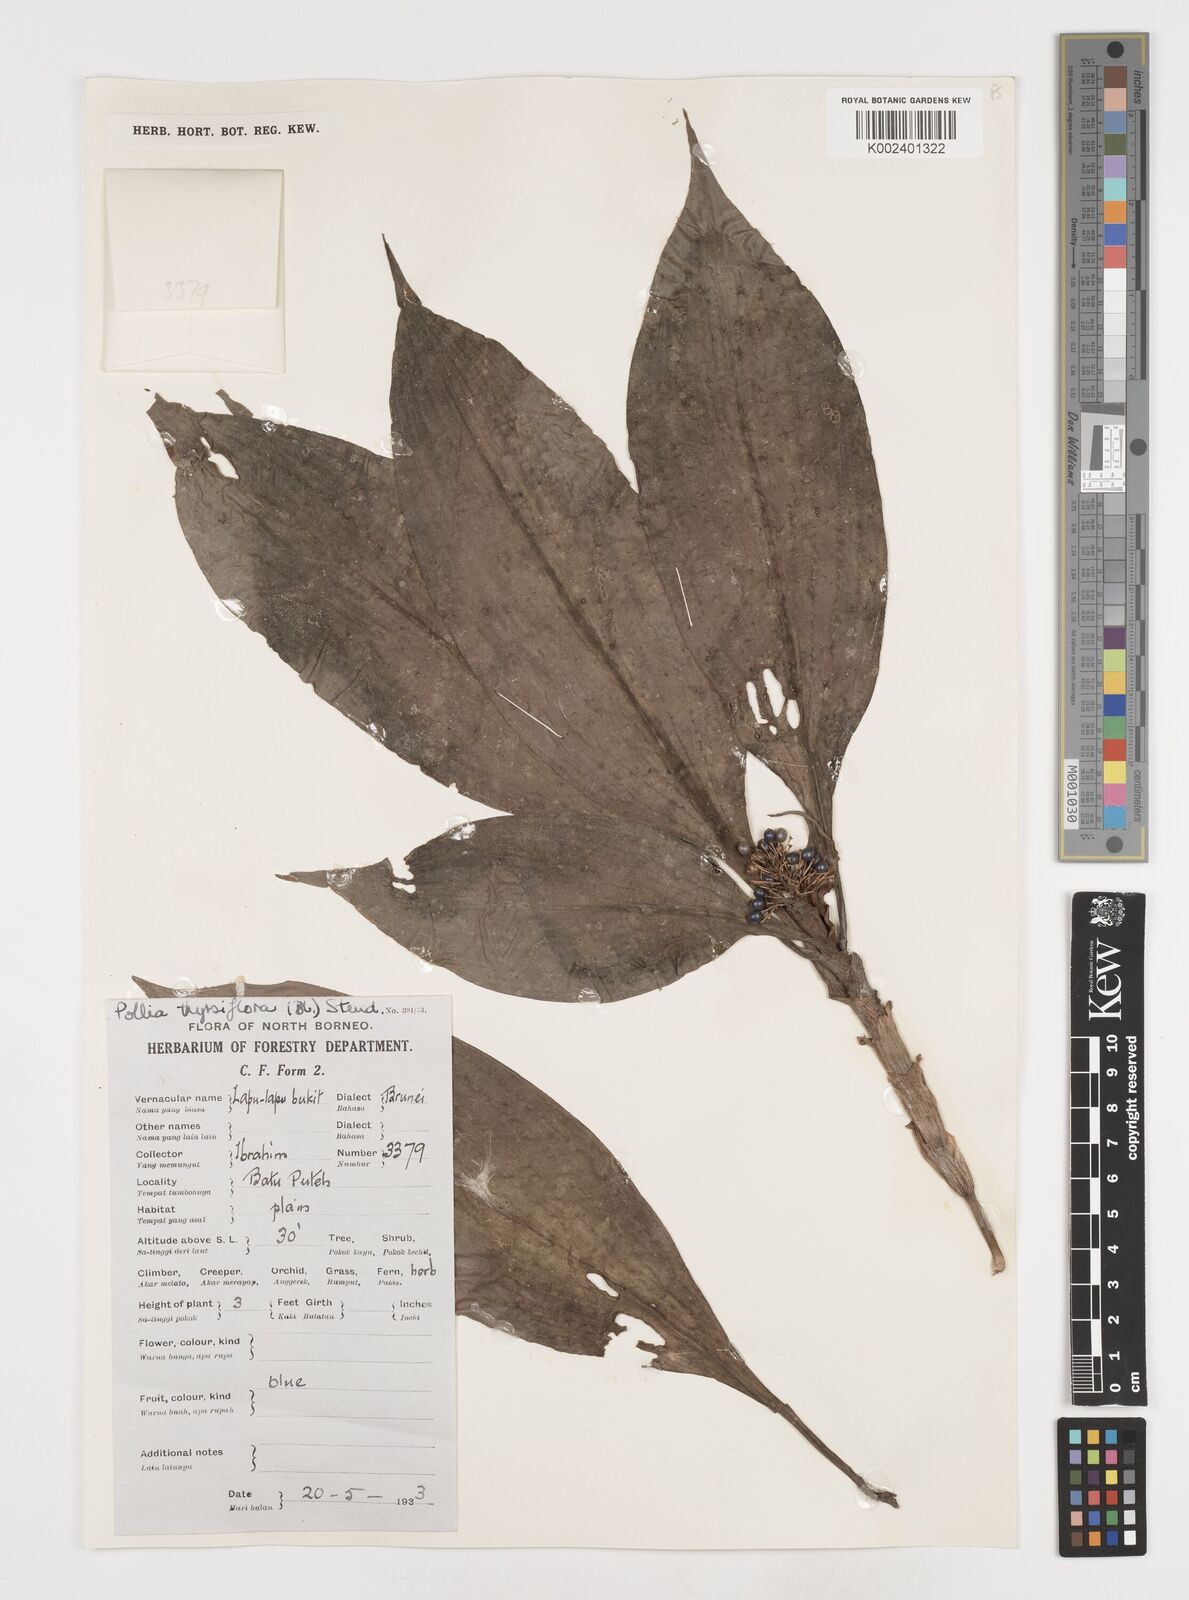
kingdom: Plantae
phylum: Tracheophyta
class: Liliopsida
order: Commelinales
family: Commelinaceae
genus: Pollia
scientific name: Pollia thyrsiflora
